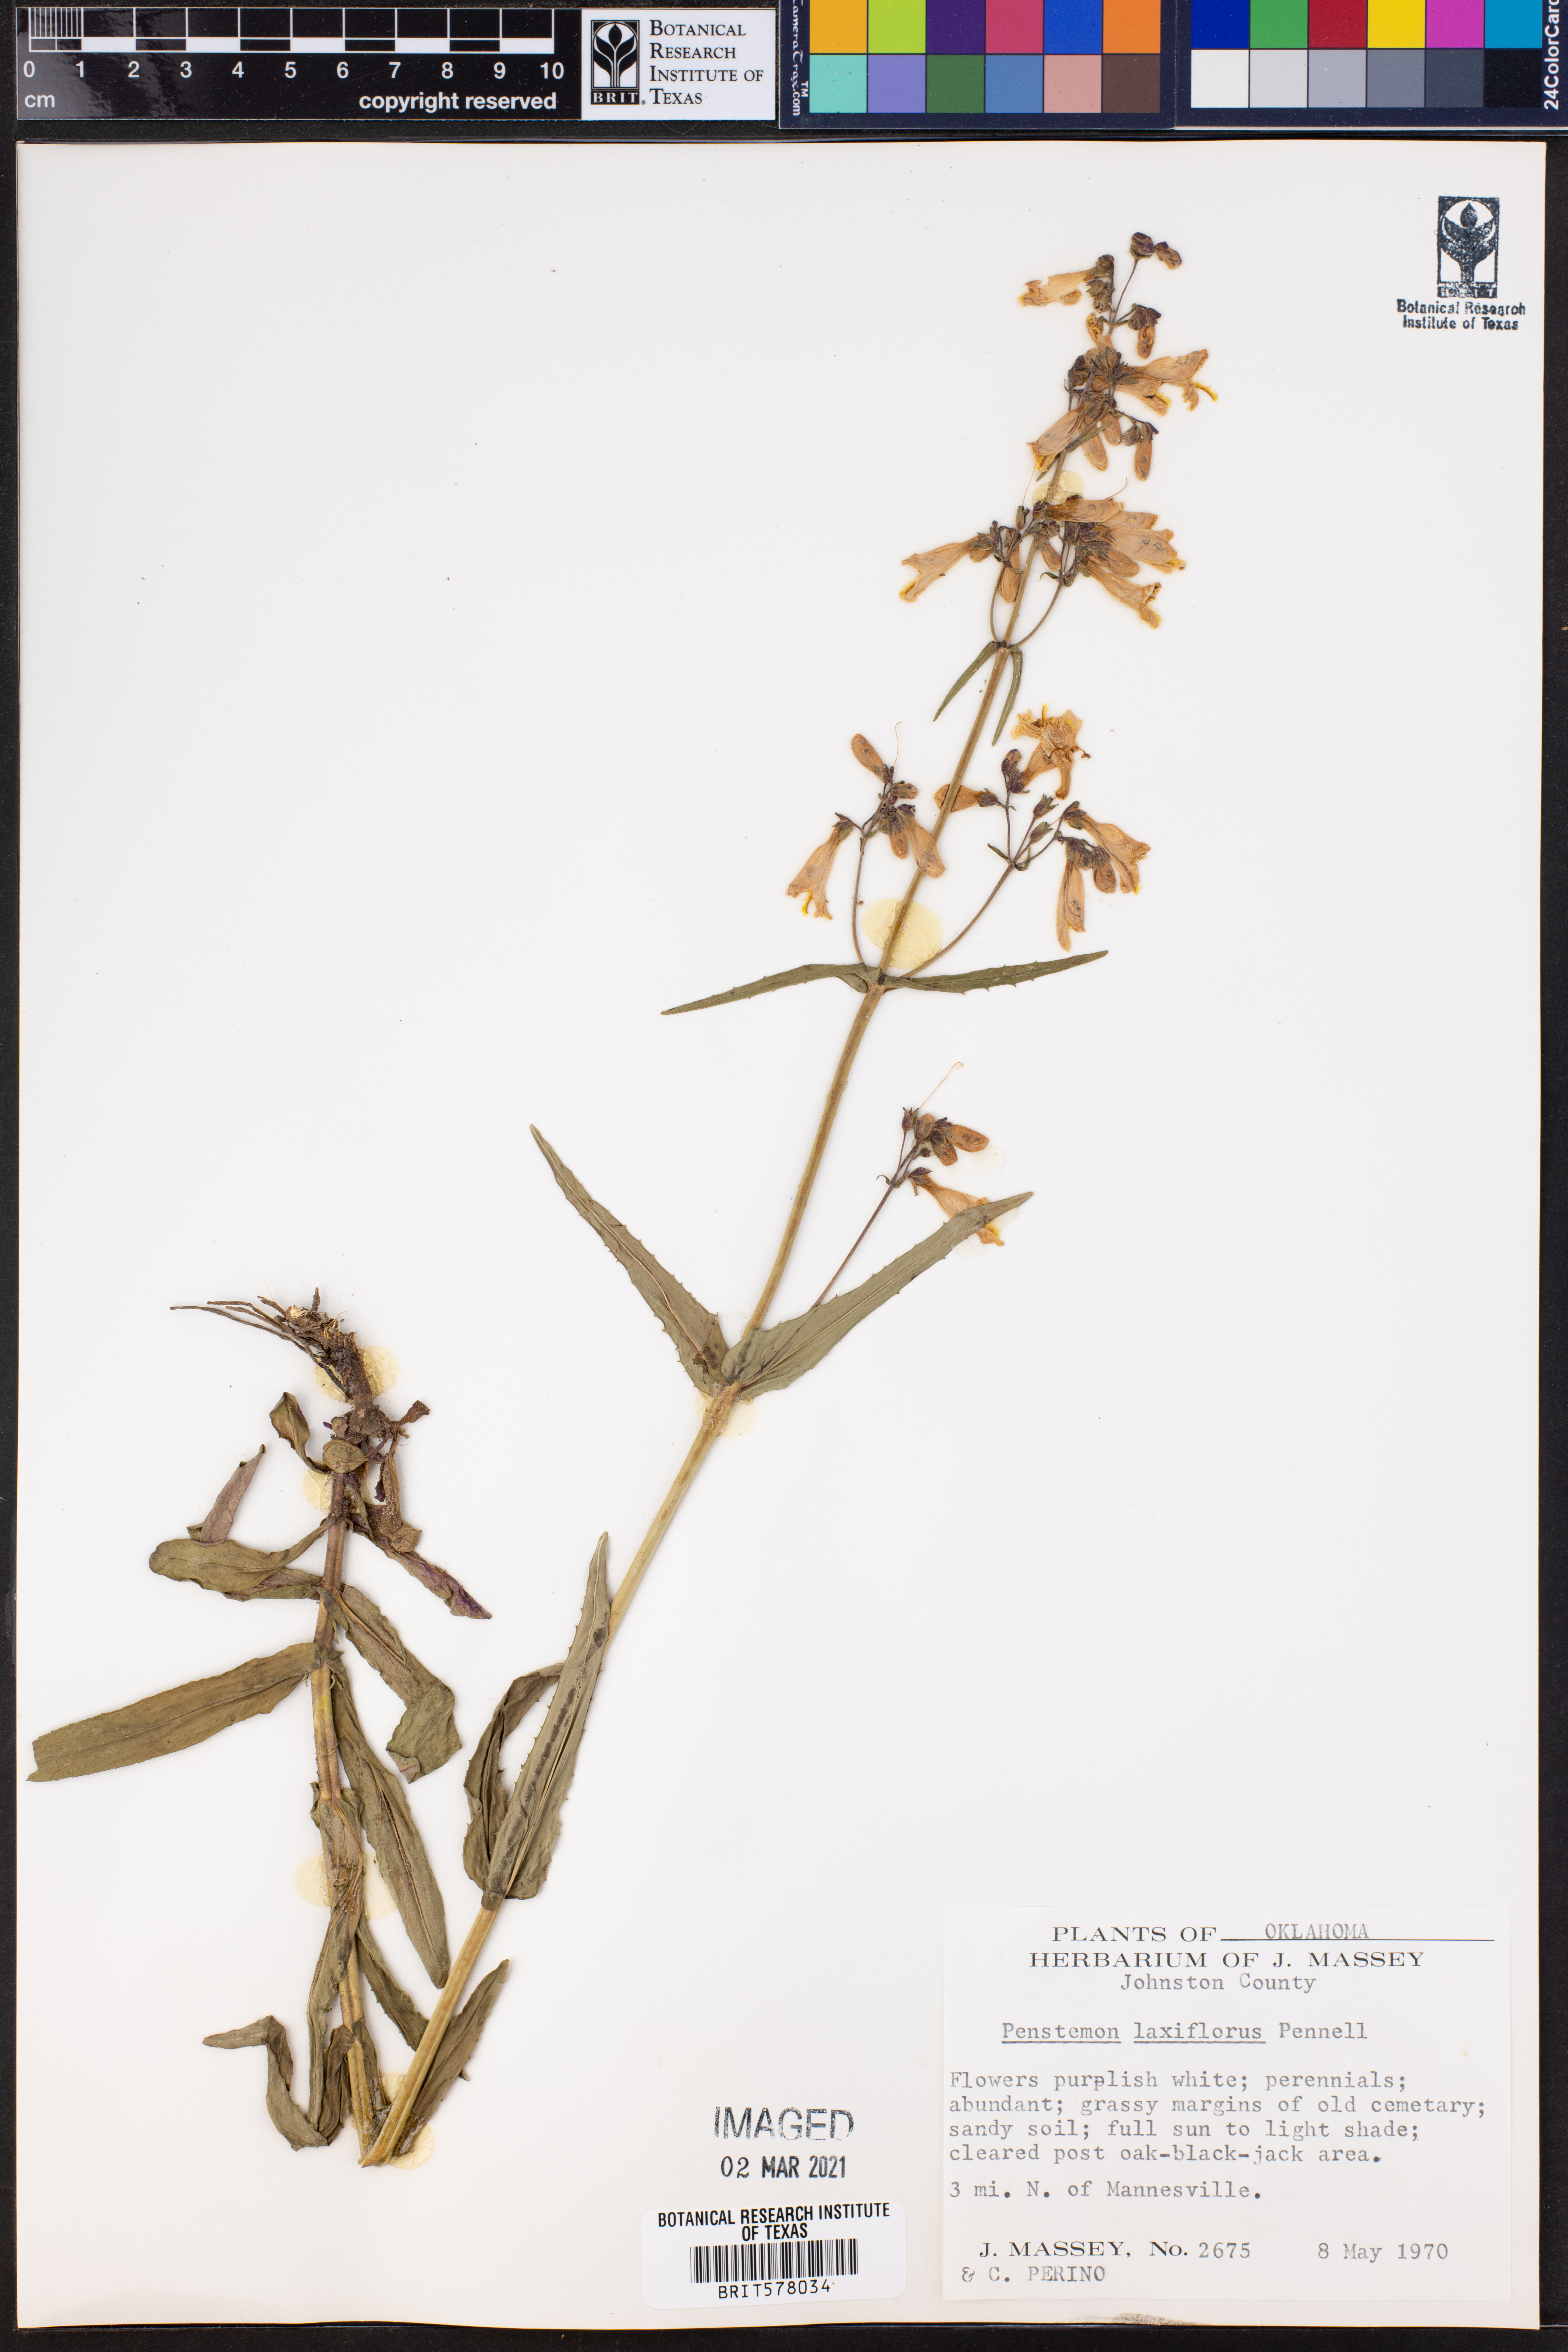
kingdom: Plantae
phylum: Tracheophyta
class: Magnoliopsida
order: Lamiales
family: Plantaginaceae
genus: Penstemon
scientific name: Penstemon laxiflorus
